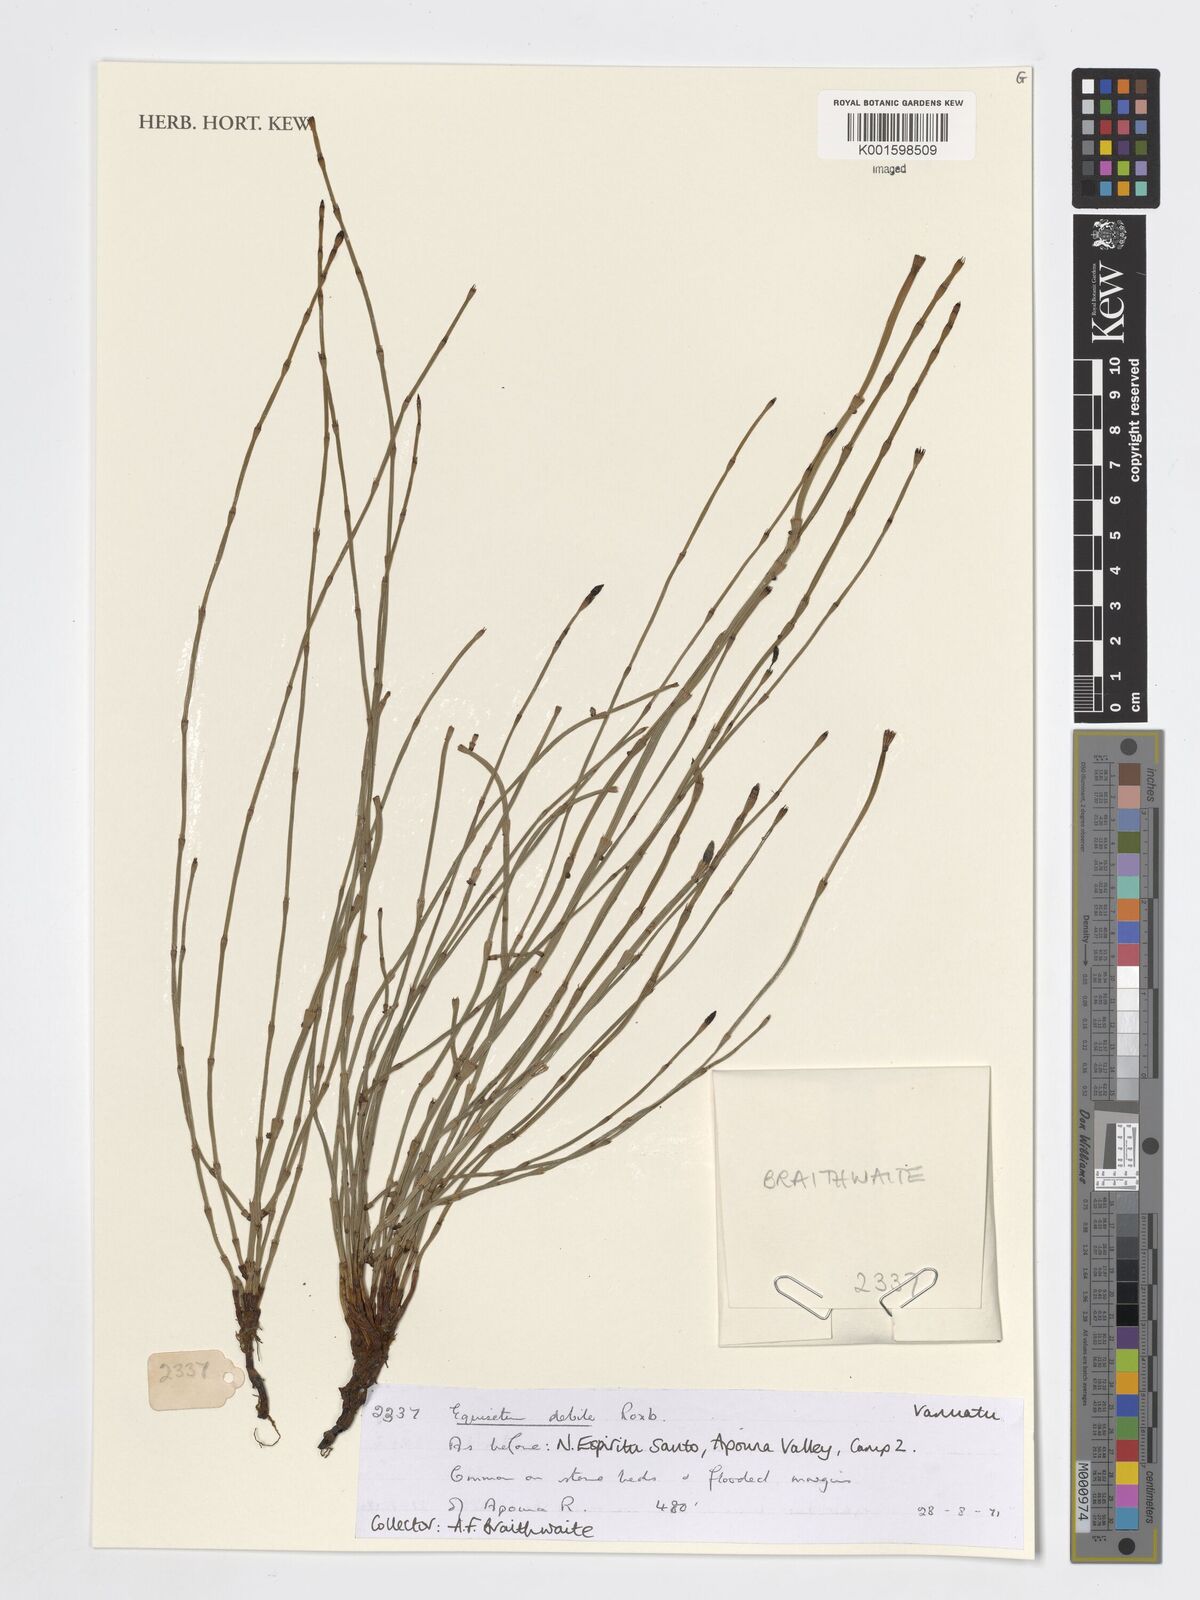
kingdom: Plantae
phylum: Tracheophyta
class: Polypodiopsida
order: Equisetales
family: Equisetaceae
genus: Equisetum
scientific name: Equisetum ramosissimum
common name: Branched horsetail
